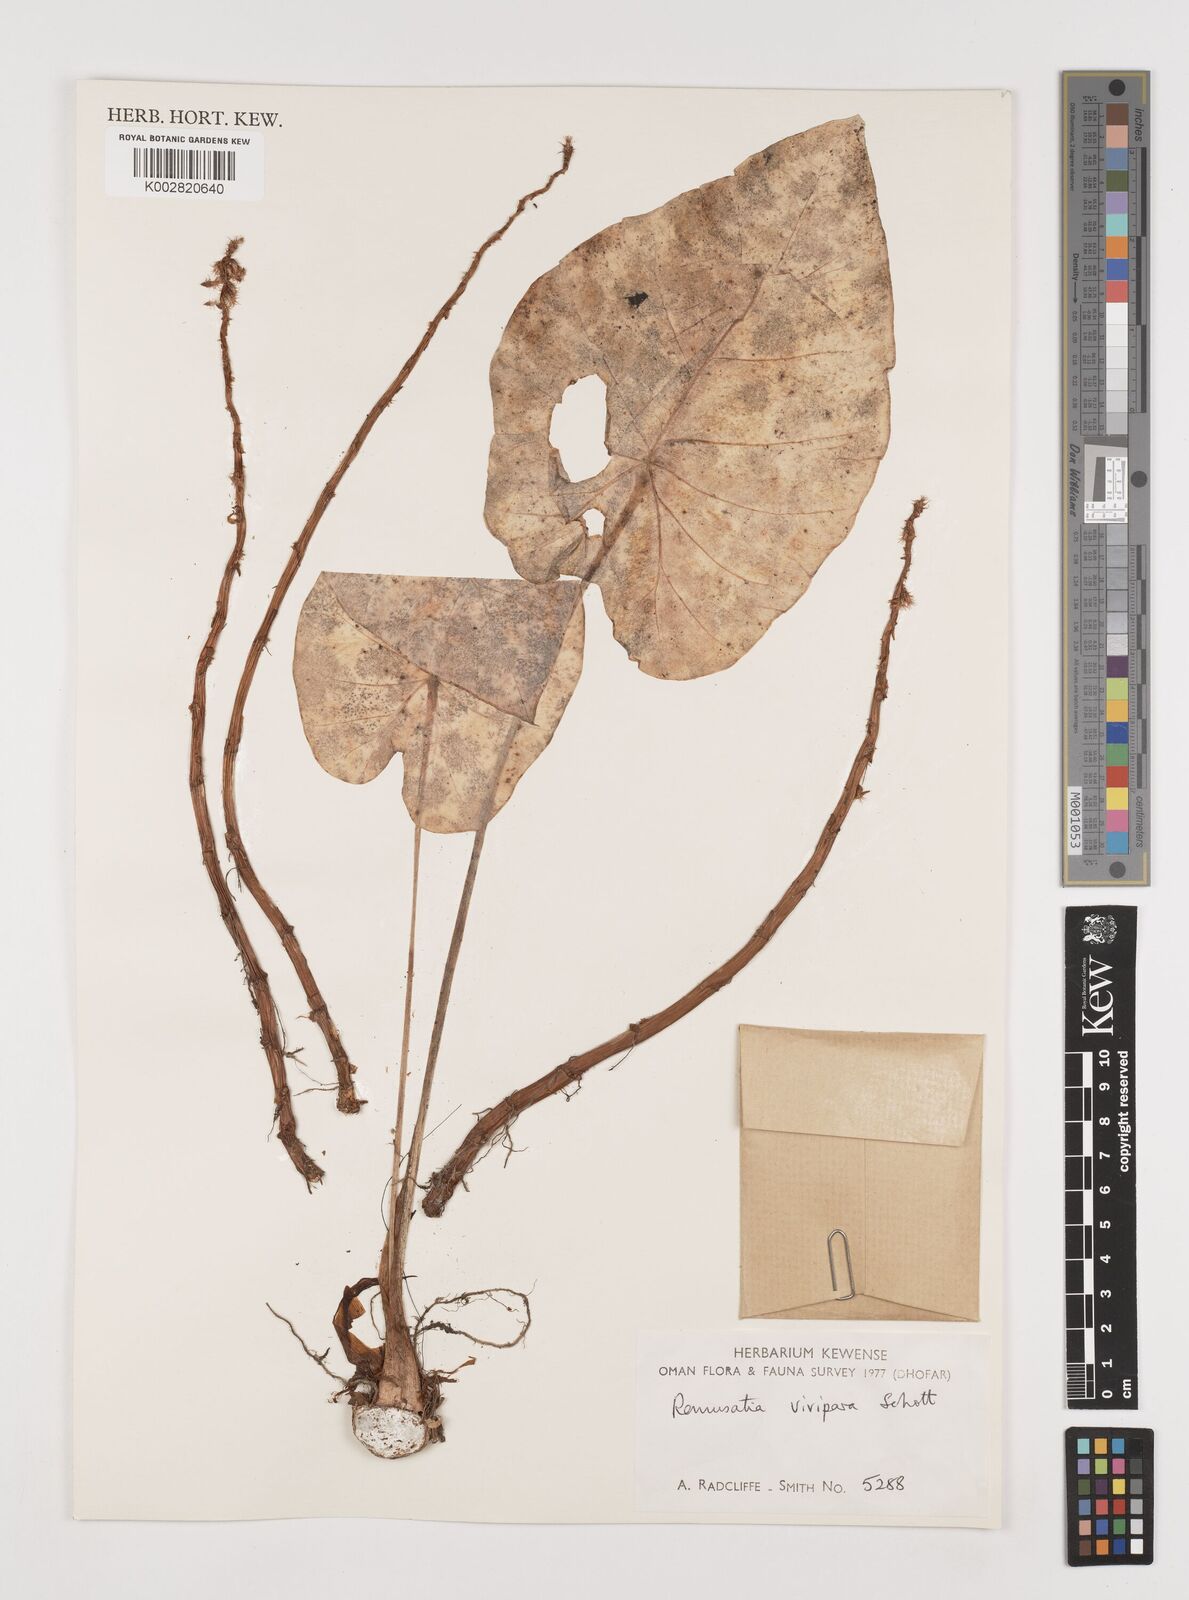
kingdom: Plantae
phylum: Tracheophyta
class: Liliopsida
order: Alismatales
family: Araceae
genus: Remusatia
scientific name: Remusatia vivipara
